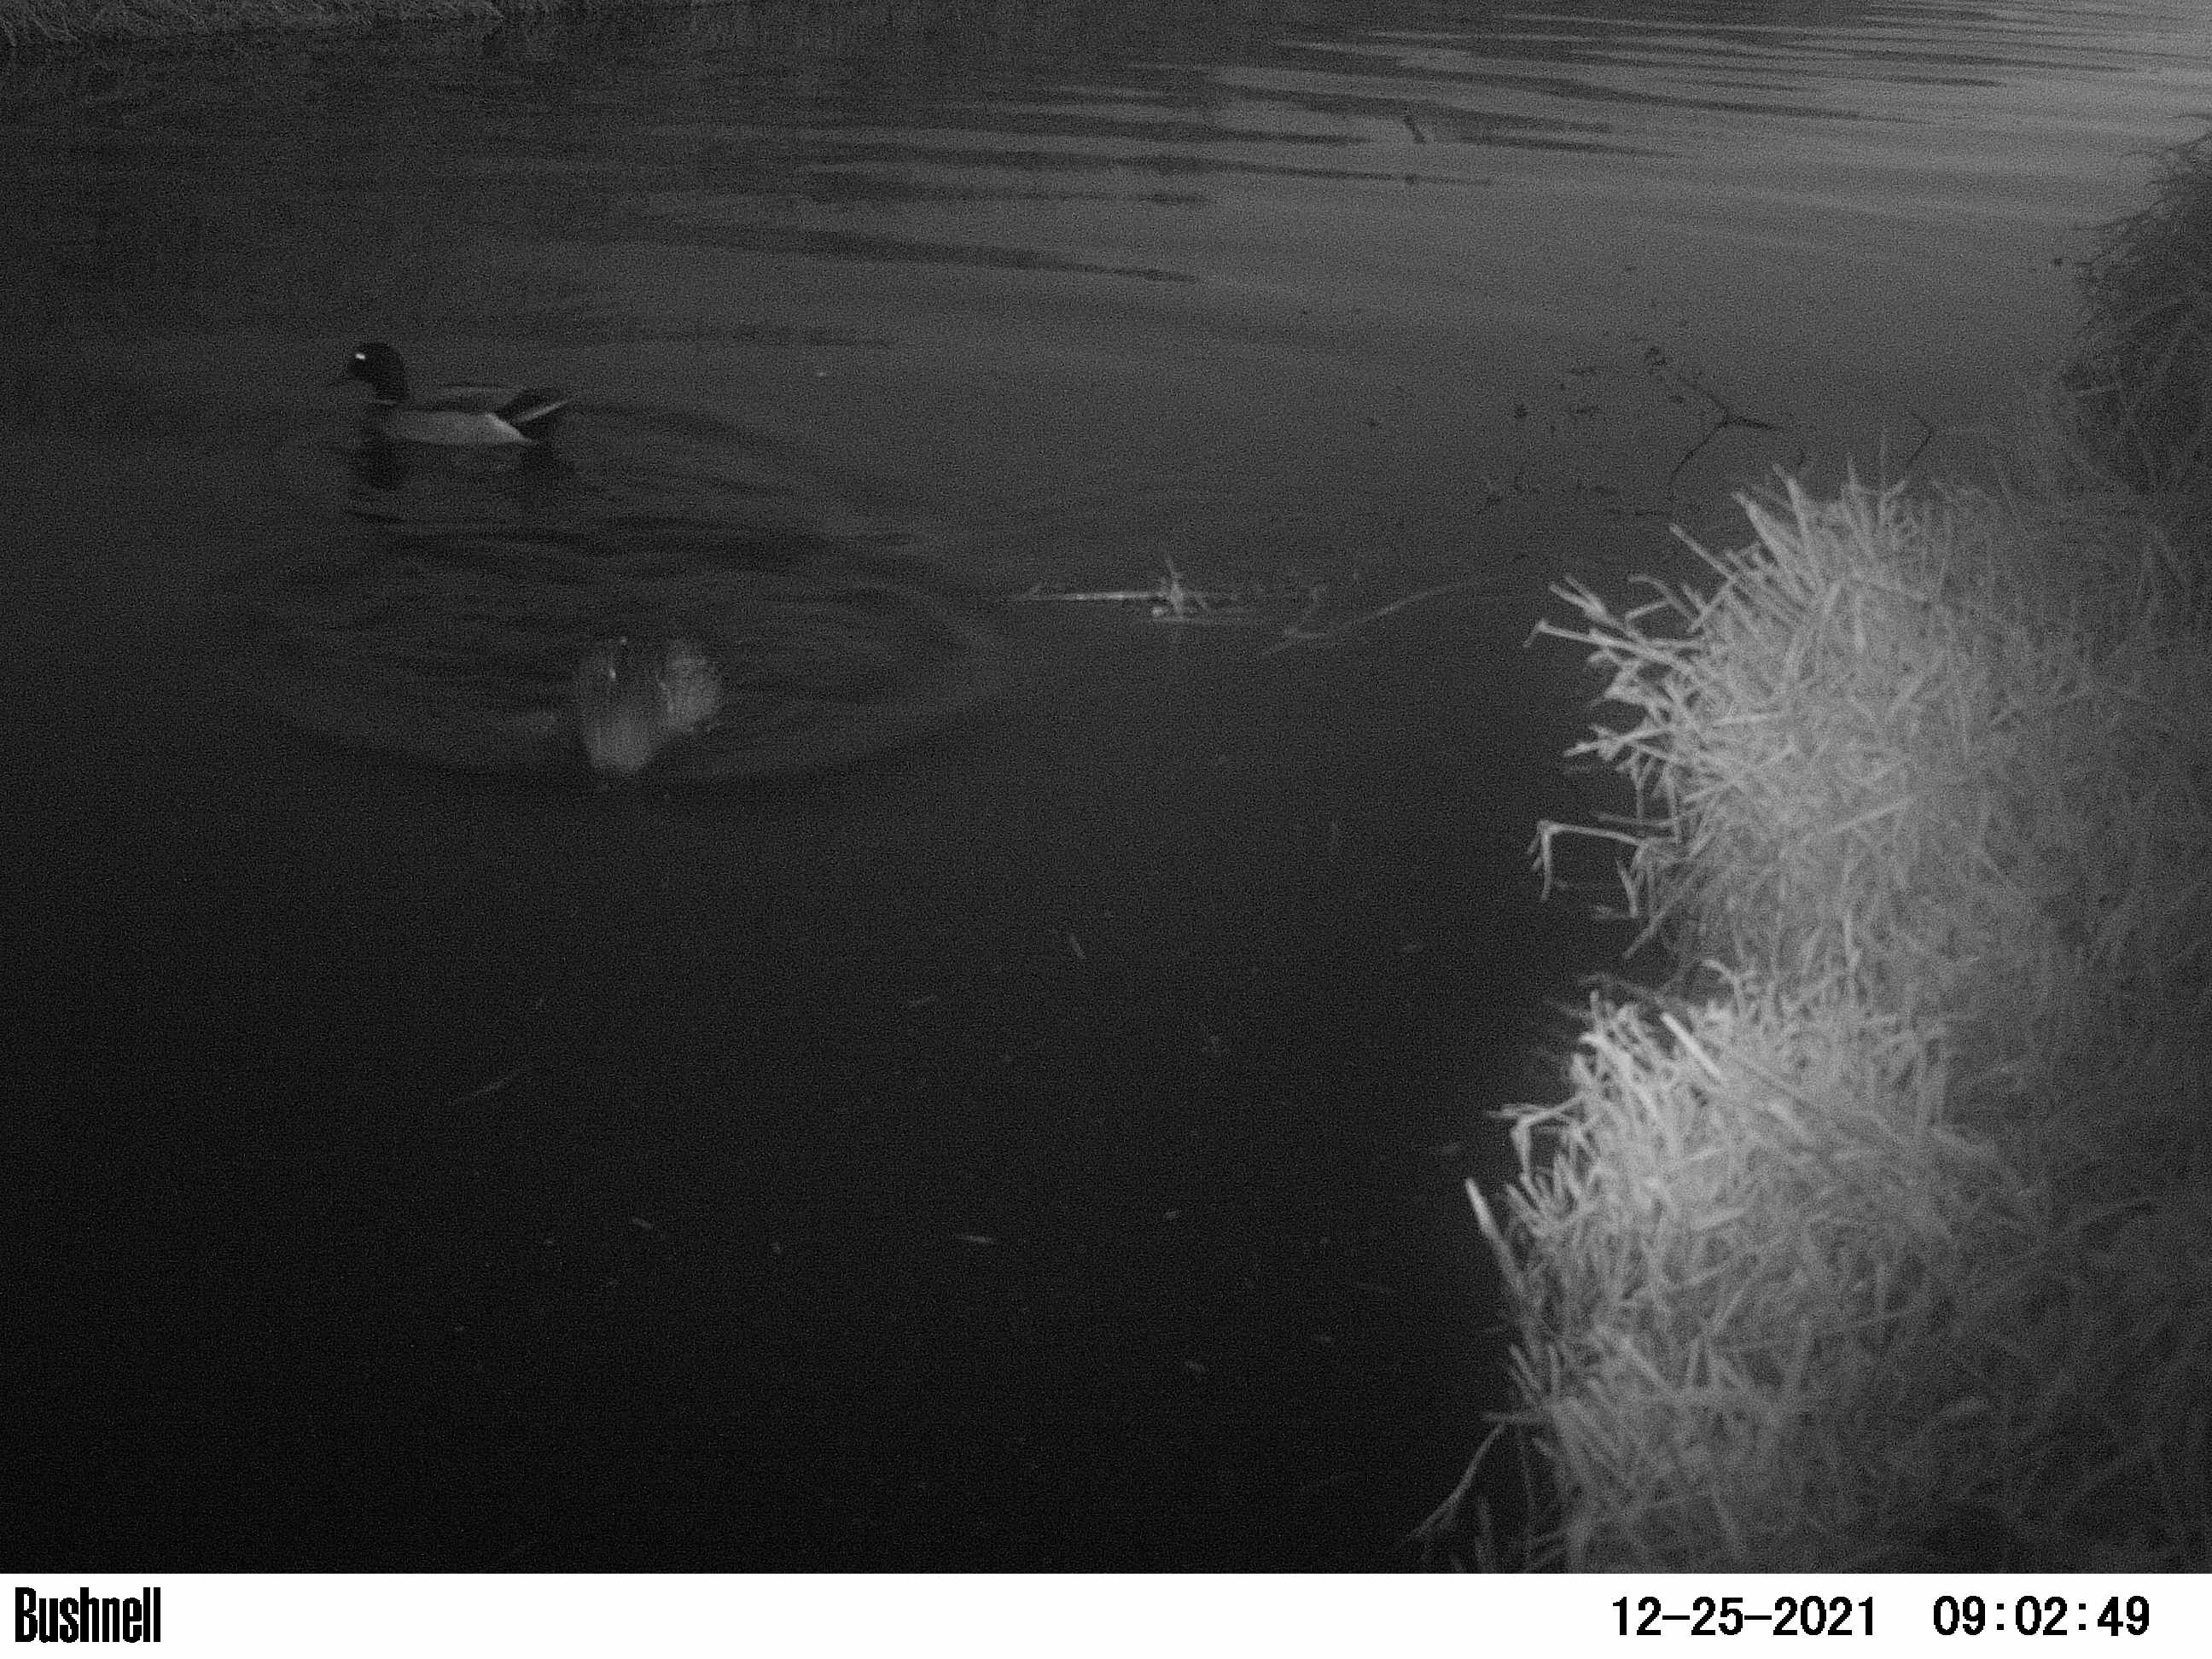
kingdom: Animalia
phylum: Chordata
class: Aves
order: Anseriformes
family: Anatidae
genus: Anas
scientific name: Anas
